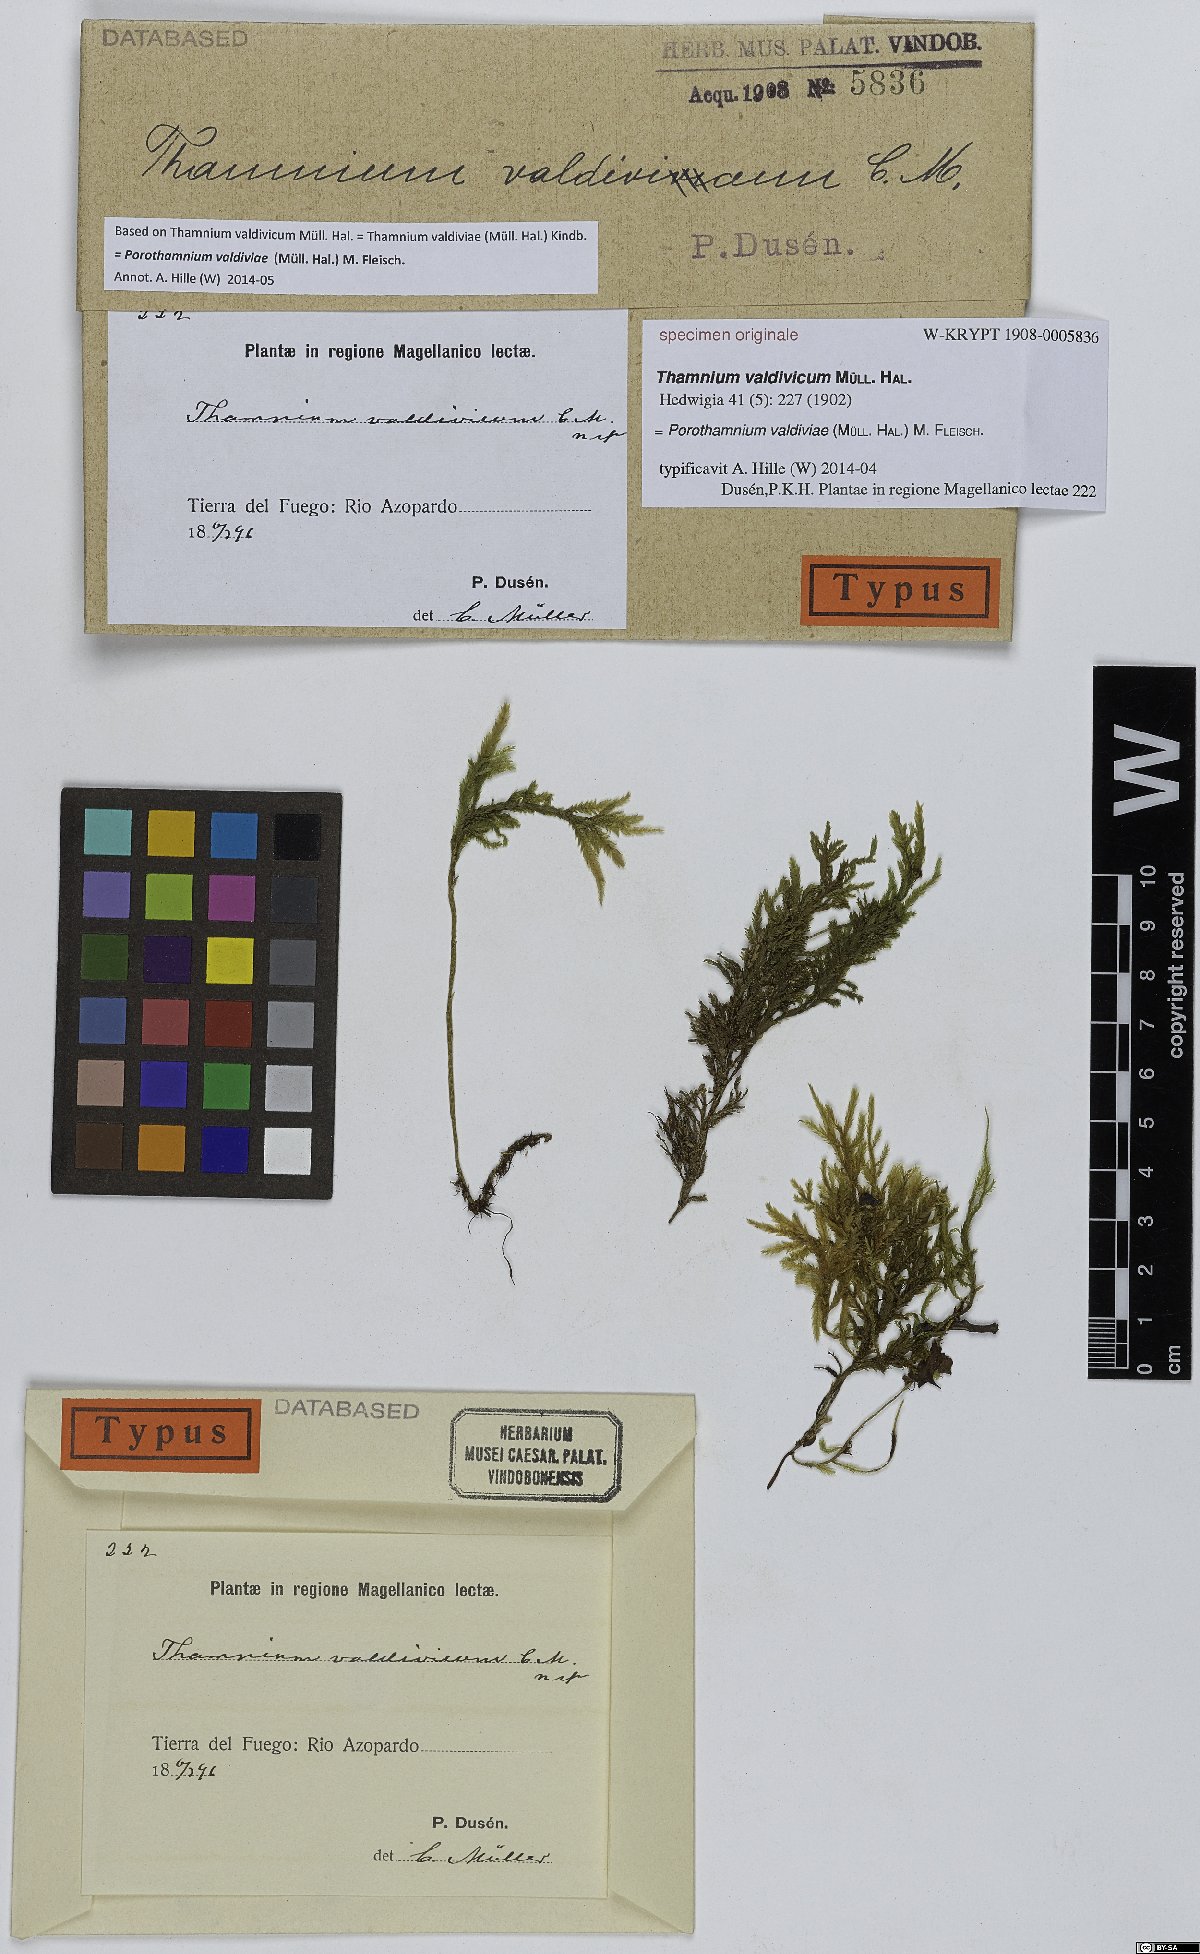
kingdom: Plantae
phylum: Bryophyta
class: Bryopsida
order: Hypnales
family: Neckeraceae
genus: Porotrichum
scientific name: Porotrichum valdiviae
